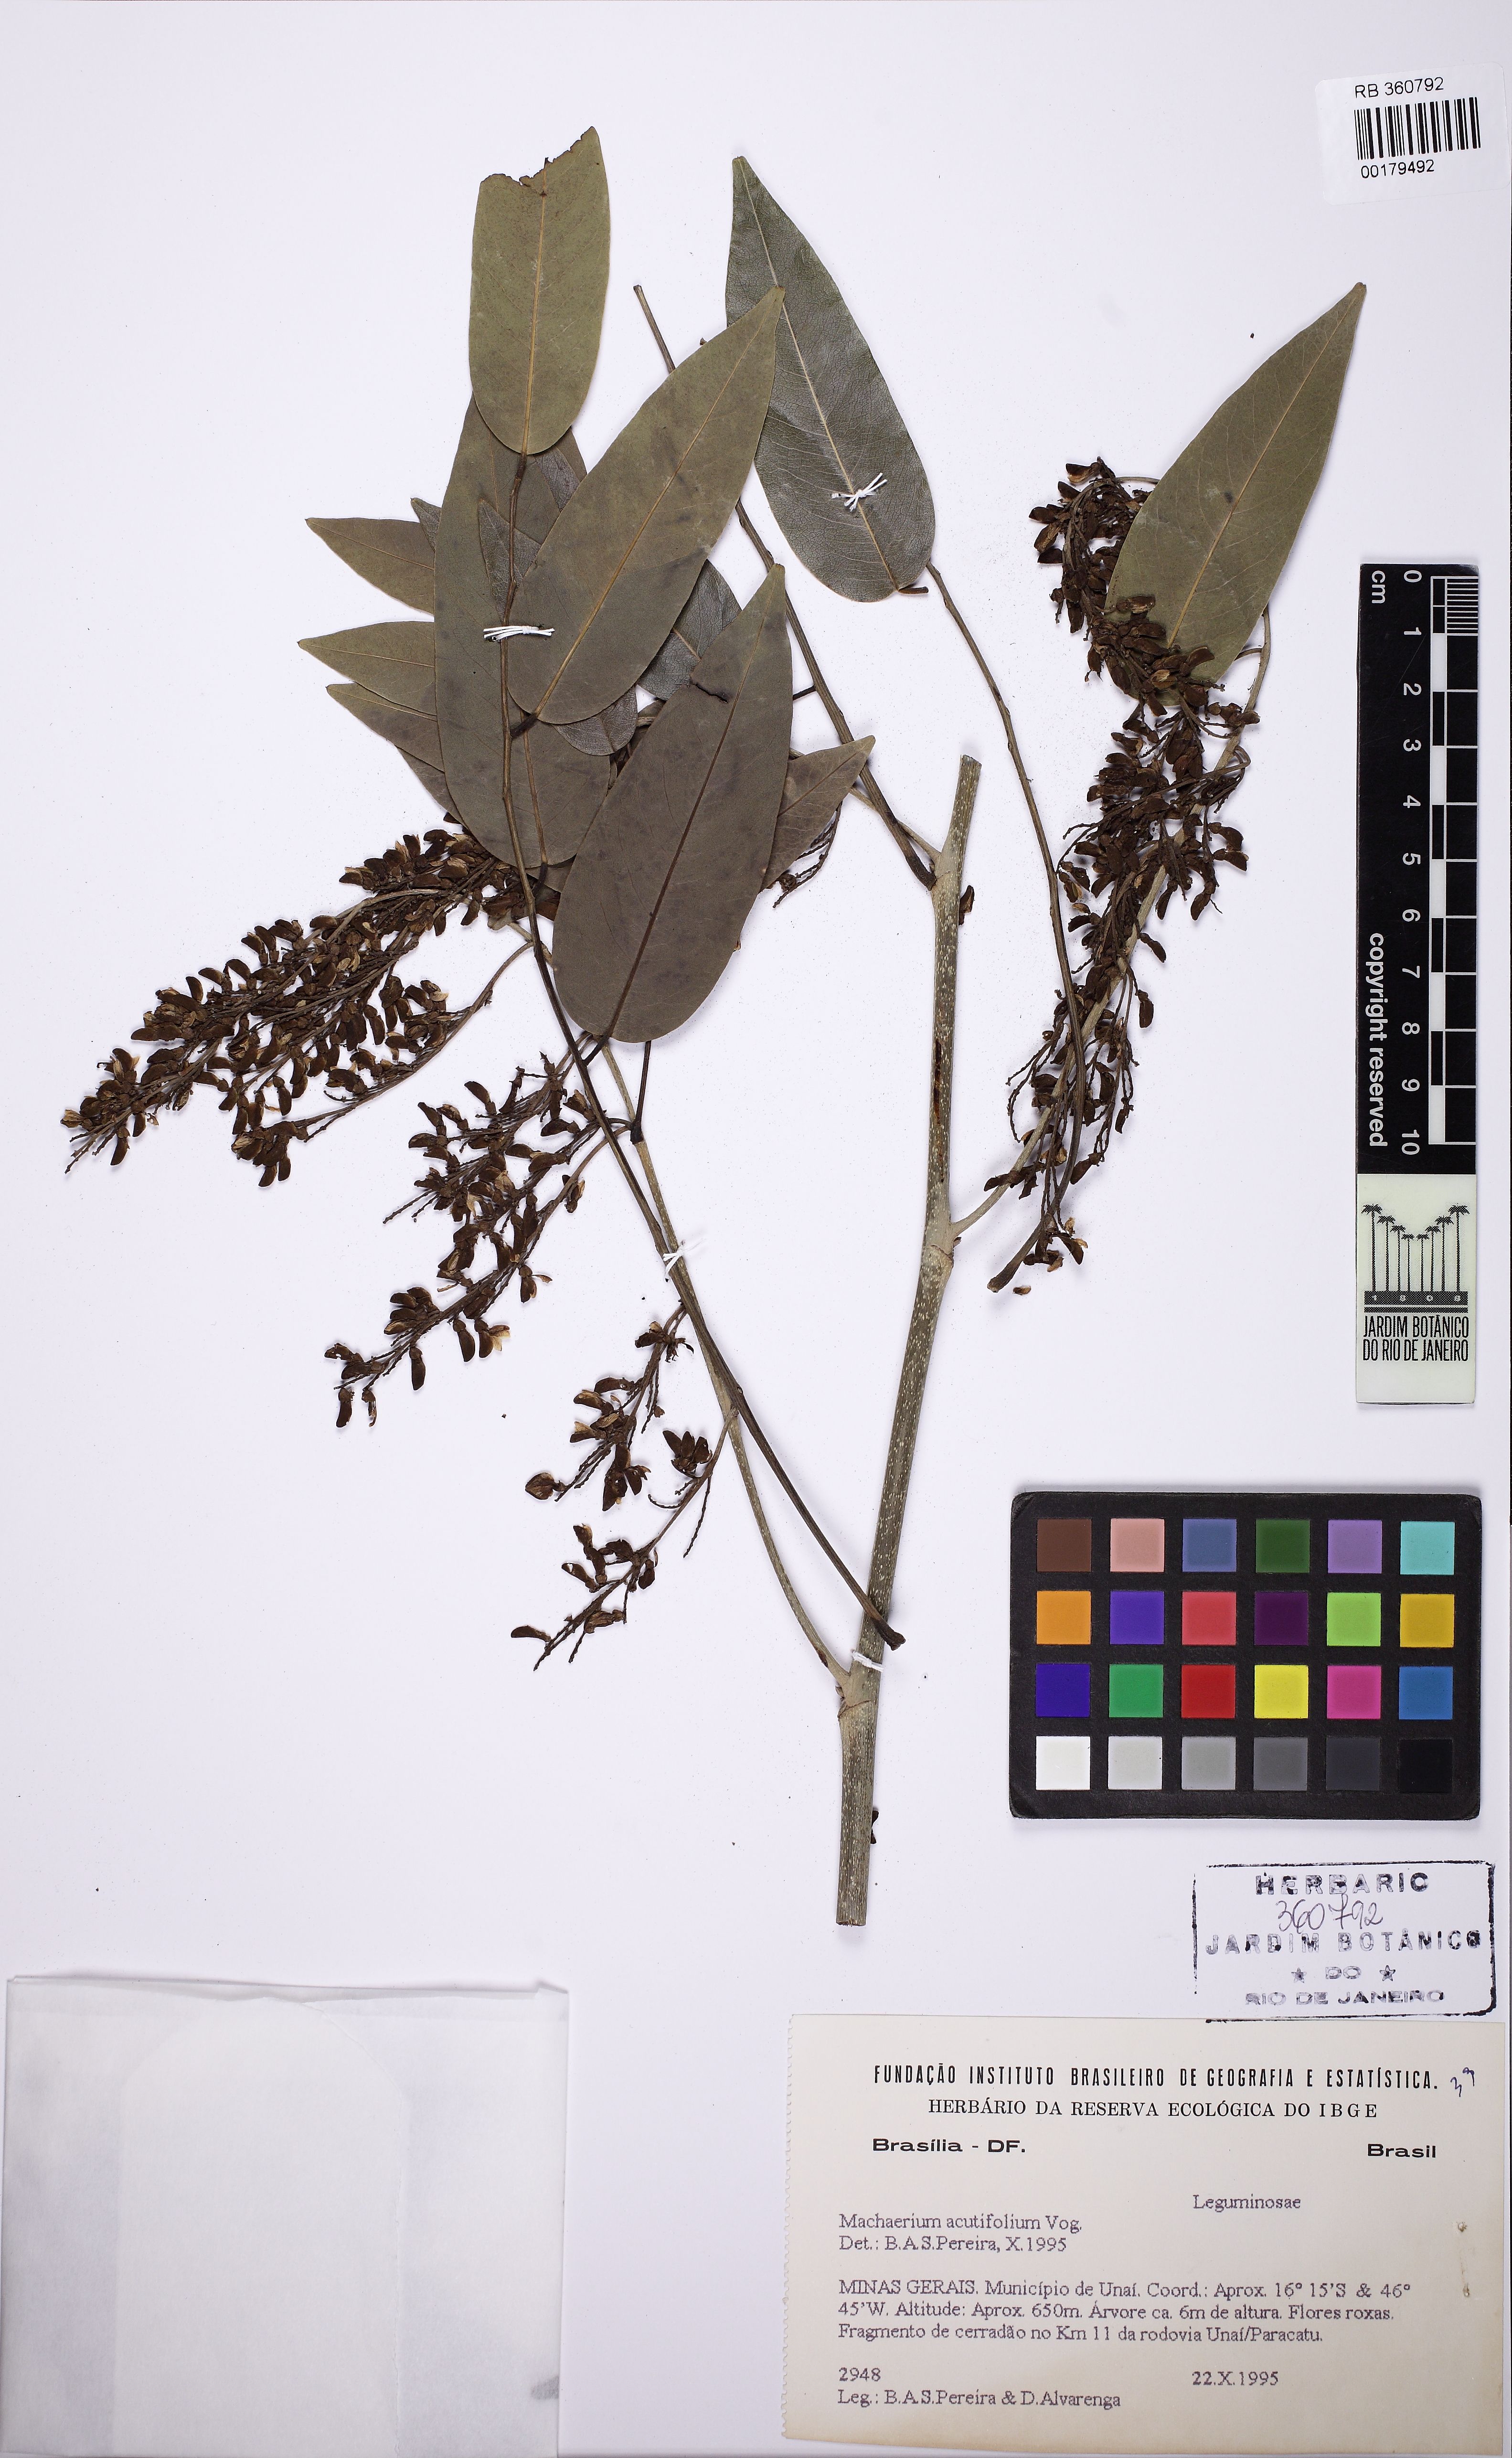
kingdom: Plantae
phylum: Tracheophyta
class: Magnoliopsida
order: Fabales
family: Fabaceae
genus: Machaerium
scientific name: Machaerium acutifolium
